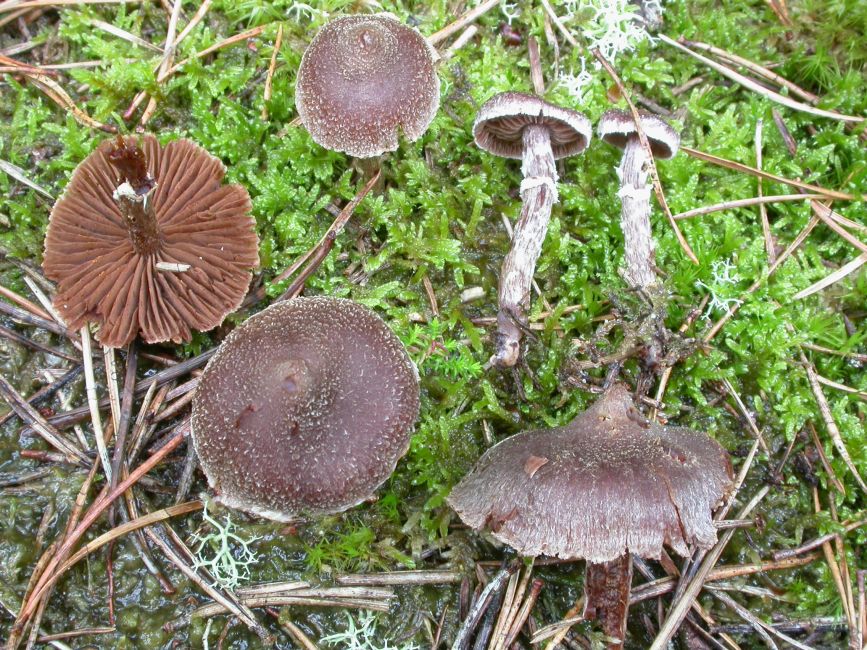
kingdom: Fungi
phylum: Basidiomycota
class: Agaricomycetes
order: Agaricales
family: Cortinariaceae
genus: Cortinarius
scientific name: Cortinarius
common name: pelargonie-slørhat
